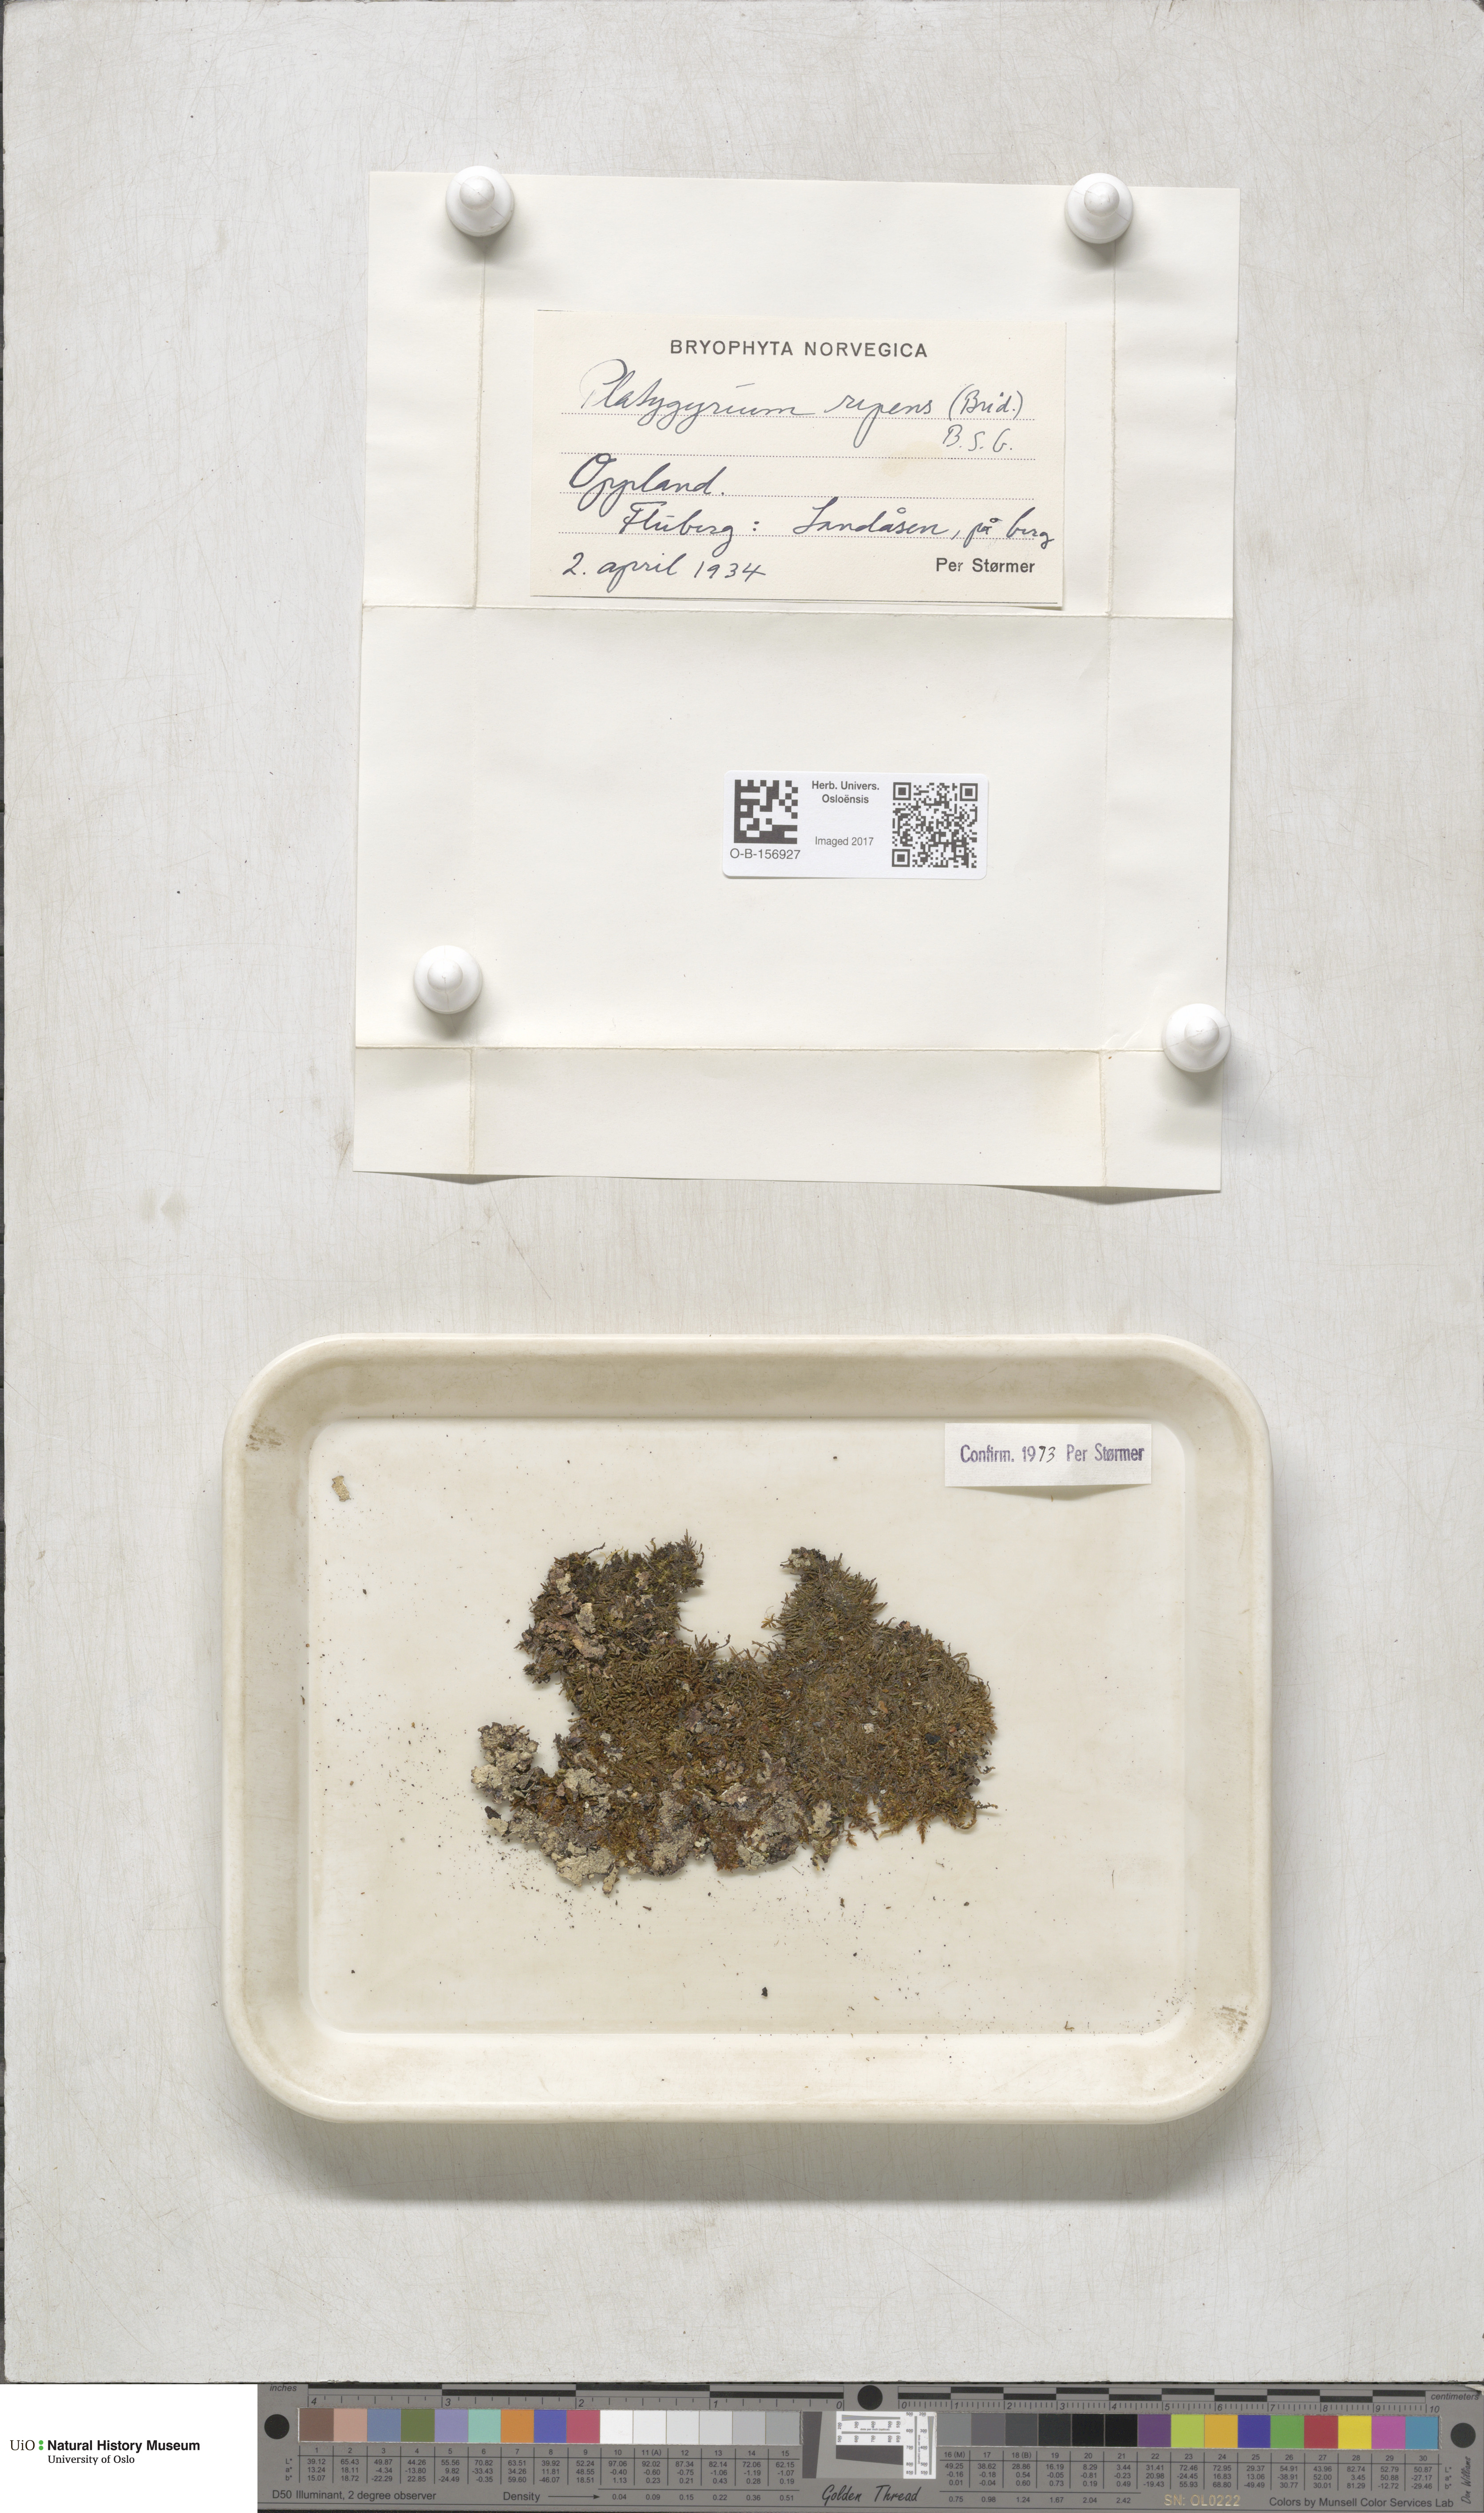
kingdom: Plantae
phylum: Bryophyta
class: Bryopsida
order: Hypnales
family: Pylaisiadelphaceae
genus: Platygyrium
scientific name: Platygyrium repens
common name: Flat-brocade moss
